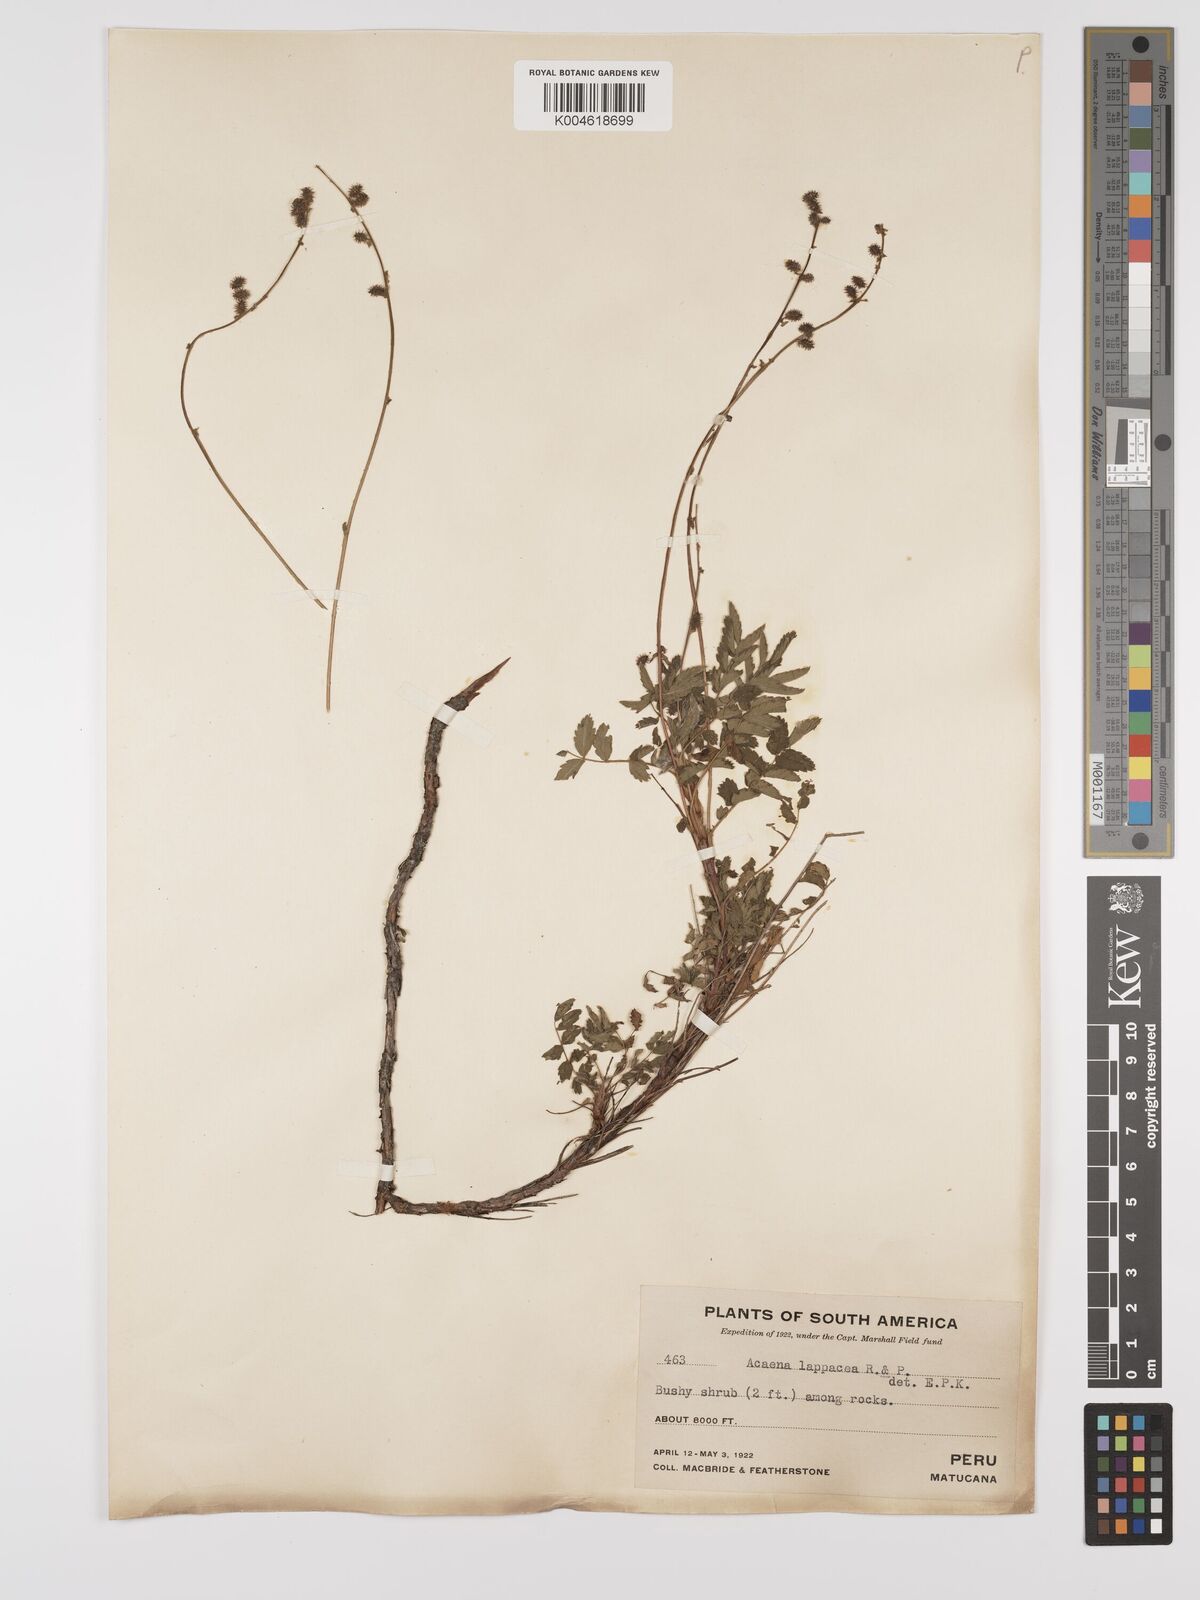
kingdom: Plantae
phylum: Tracheophyta
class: Magnoliopsida
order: Rosales
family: Rosaceae
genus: Acaena
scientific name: Acaena torilicarpa
